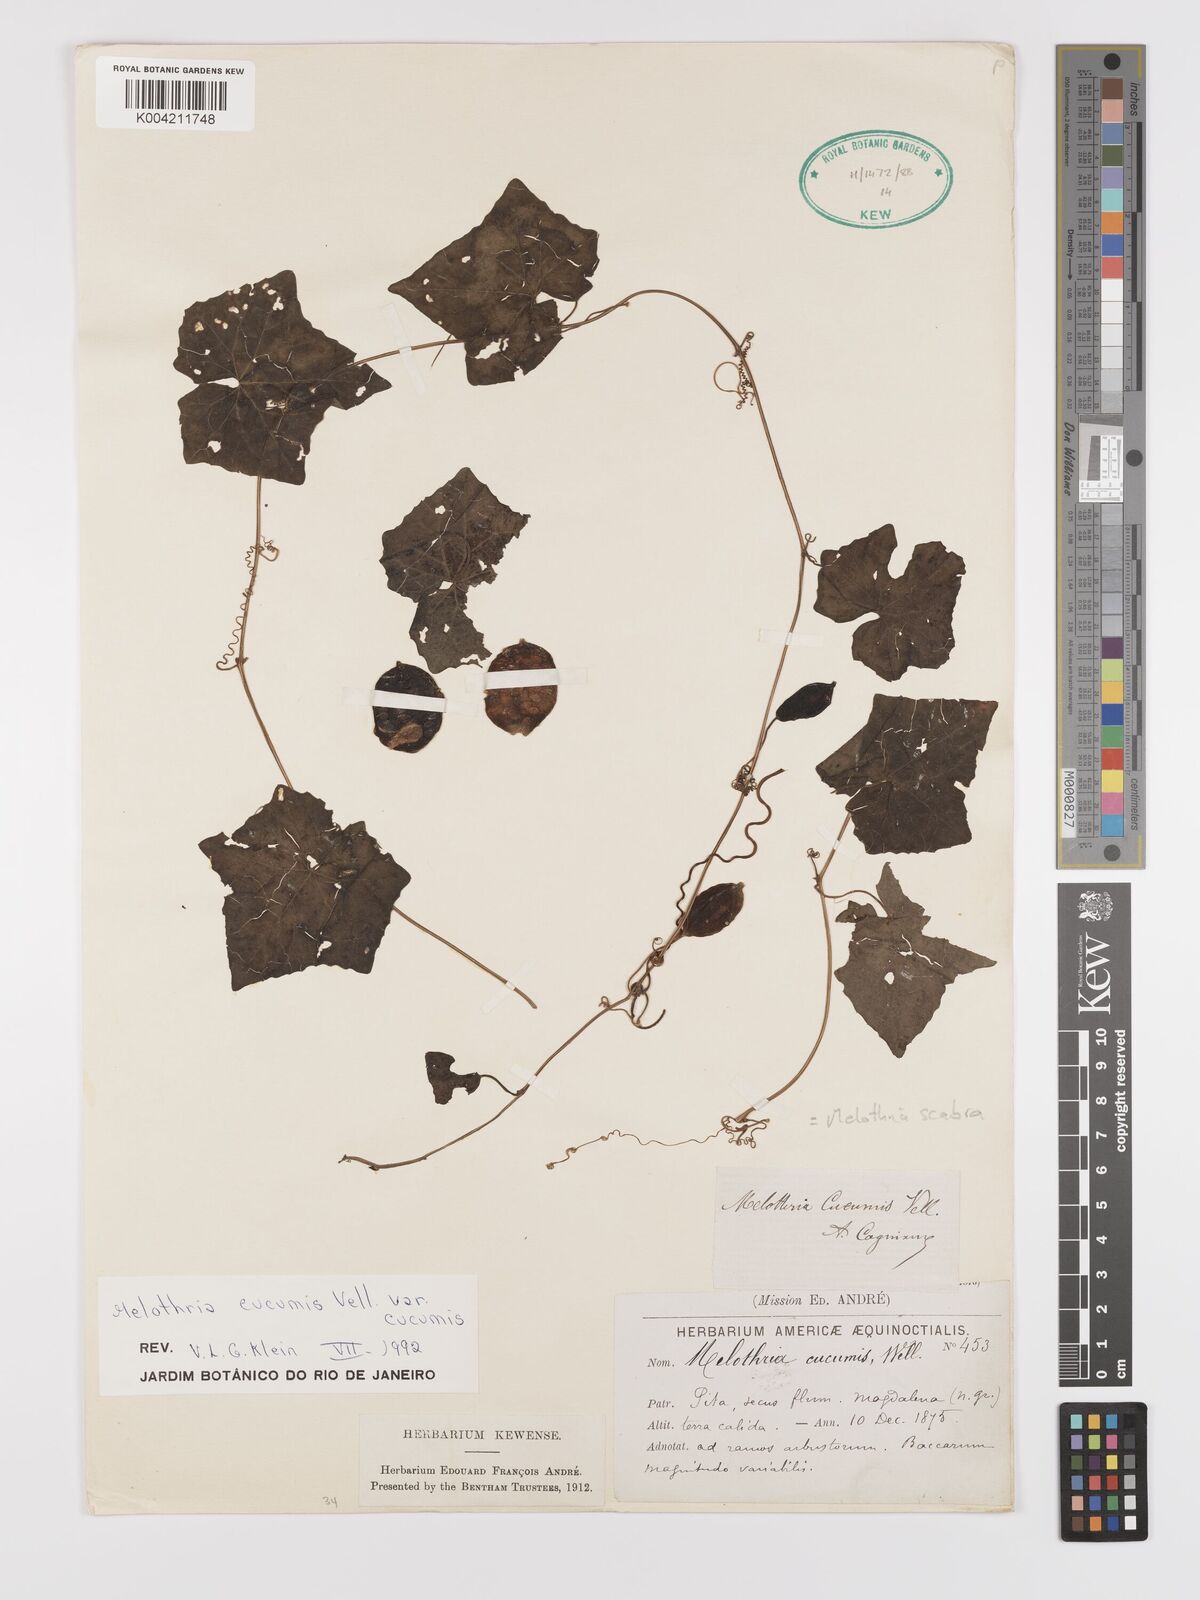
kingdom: Plantae
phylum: Tracheophyta
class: Magnoliopsida
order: Cucurbitales
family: Cucurbitaceae
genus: Melothria
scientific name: Melothria cucumis
